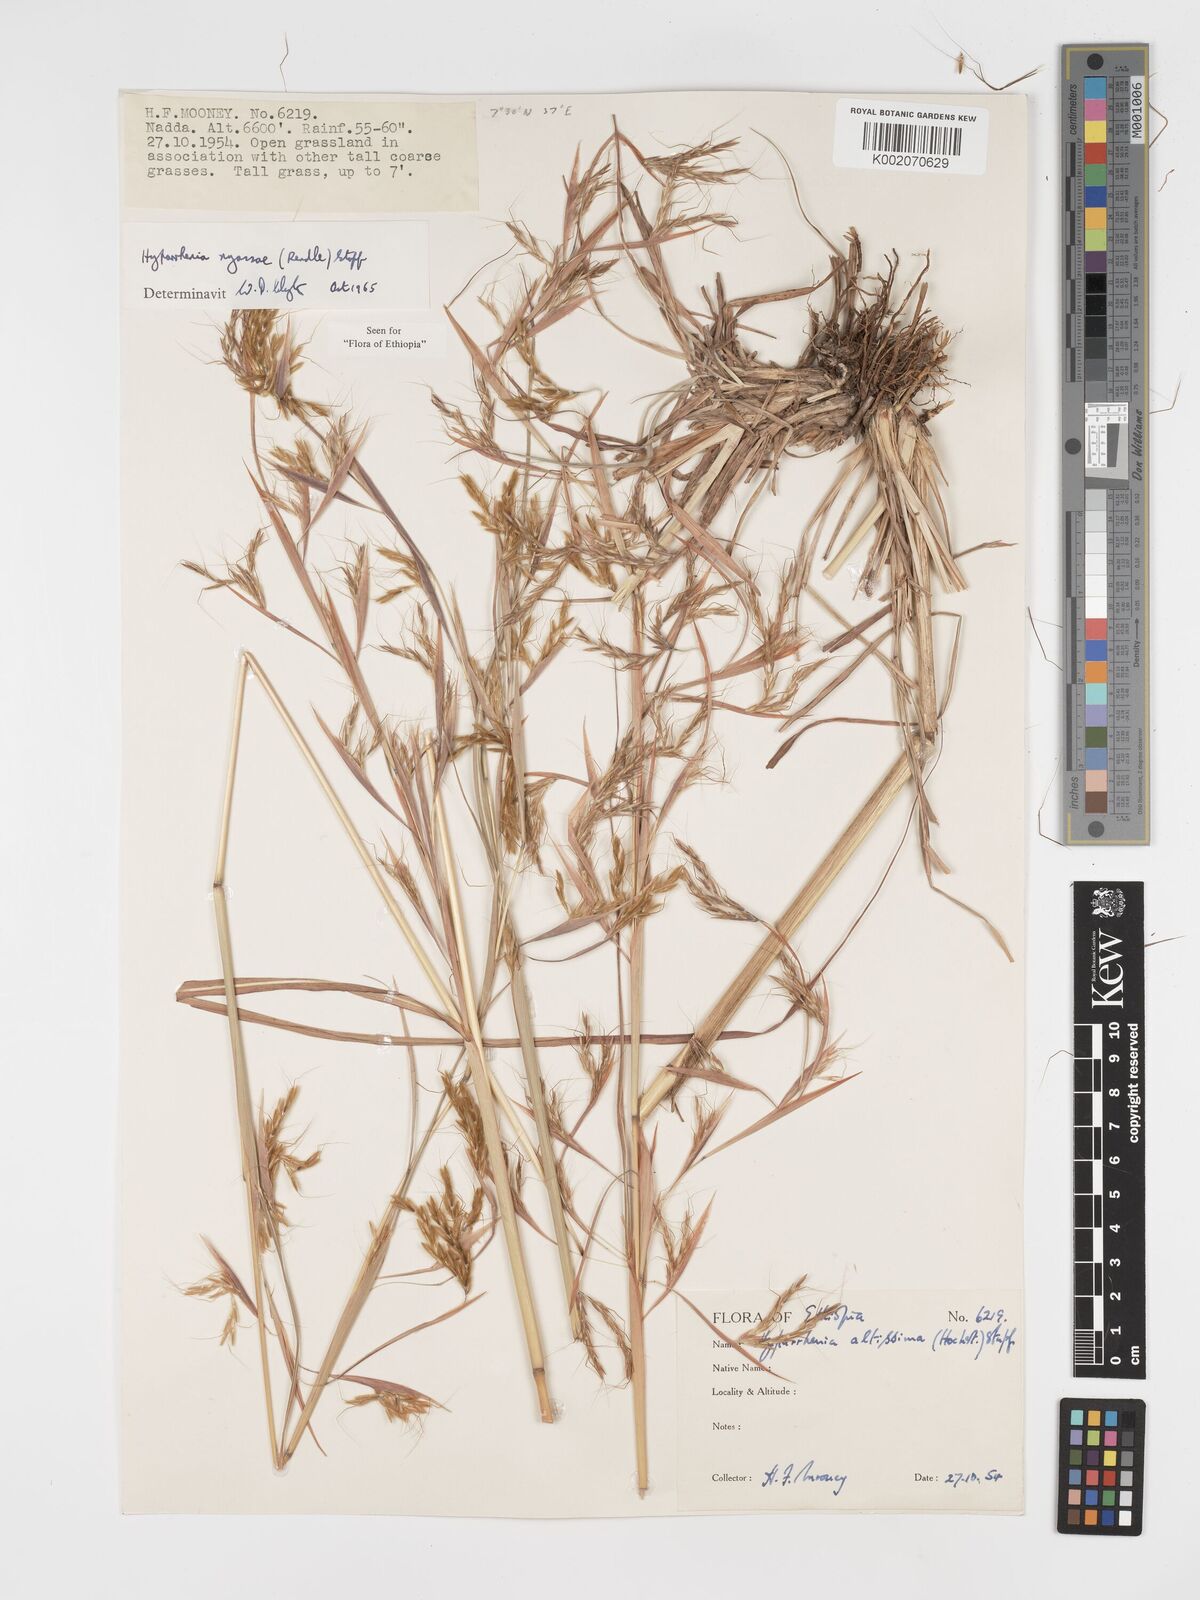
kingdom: Plantae
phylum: Tracheophyta
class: Liliopsida
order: Poales
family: Poaceae
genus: Hyparrhenia
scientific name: Hyparrhenia nyassae
